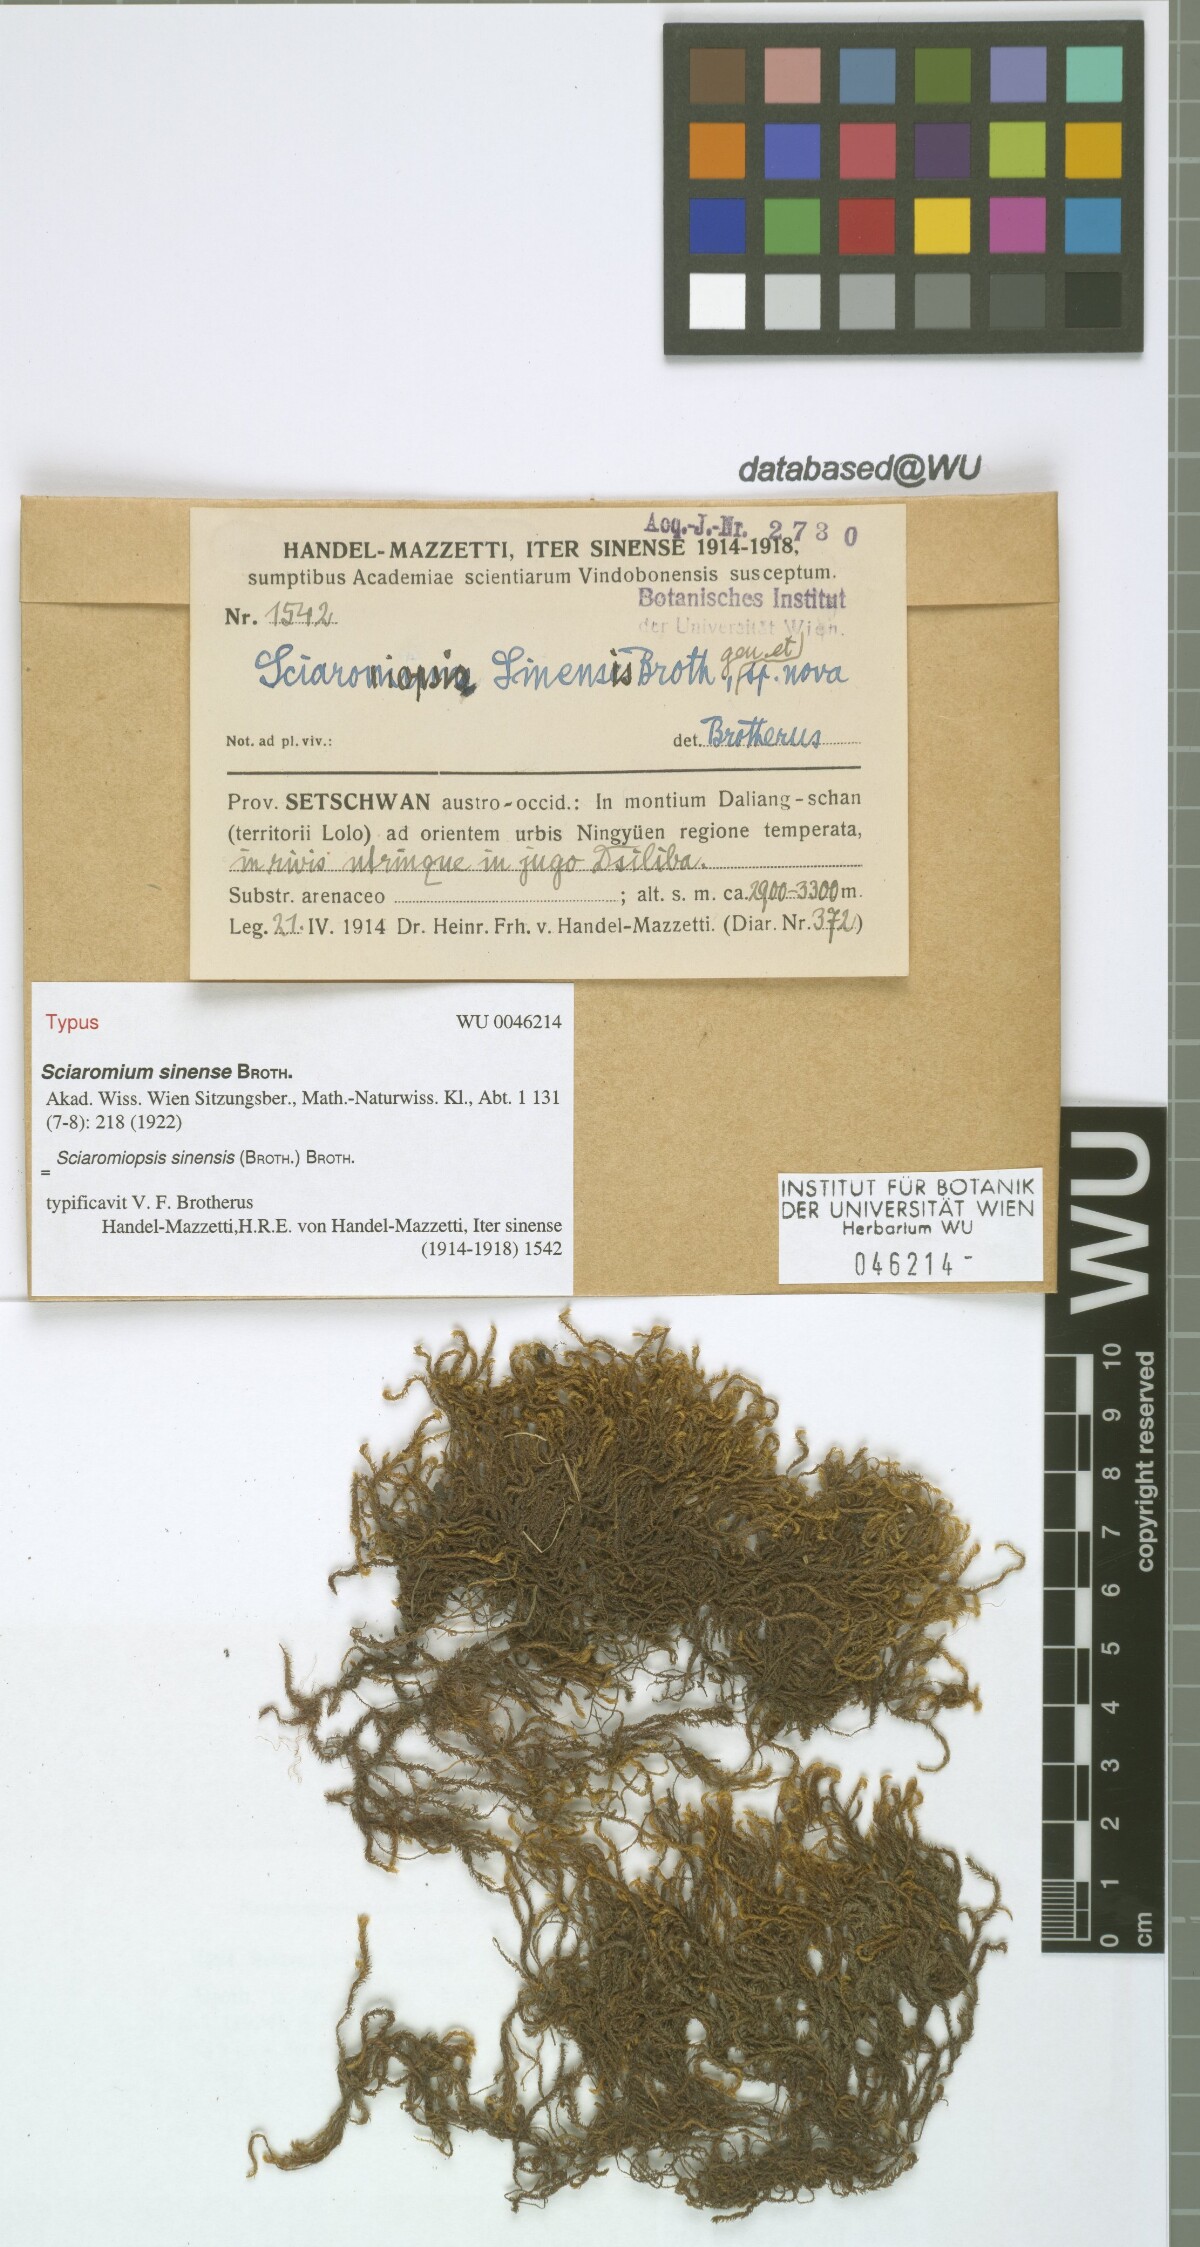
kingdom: Plantae
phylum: Bryophyta
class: Bryopsida
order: Hypnales
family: Brachytheciaceae
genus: Brachythecium
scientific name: Brachythecium sinense
